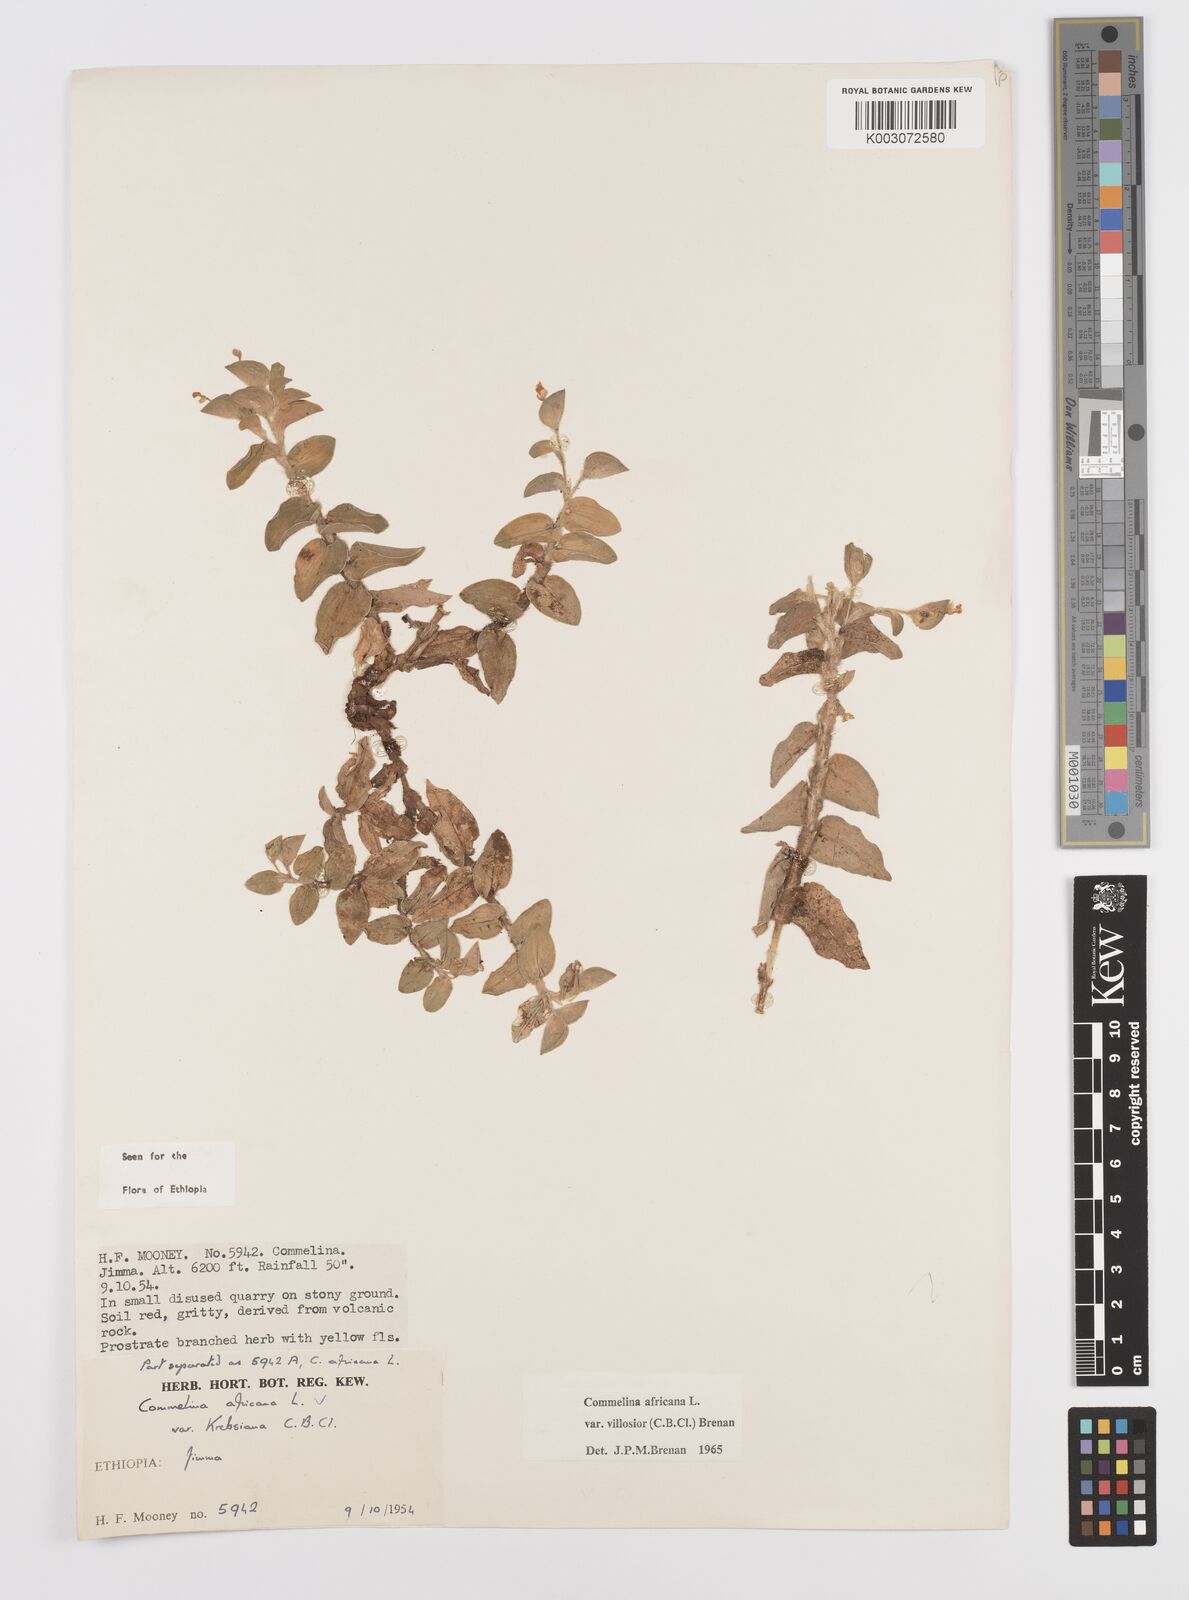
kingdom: Plantae
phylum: Tracheophyta
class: Liliopsida
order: Commelinales
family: Commelinaceae
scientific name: Commelinaceae
